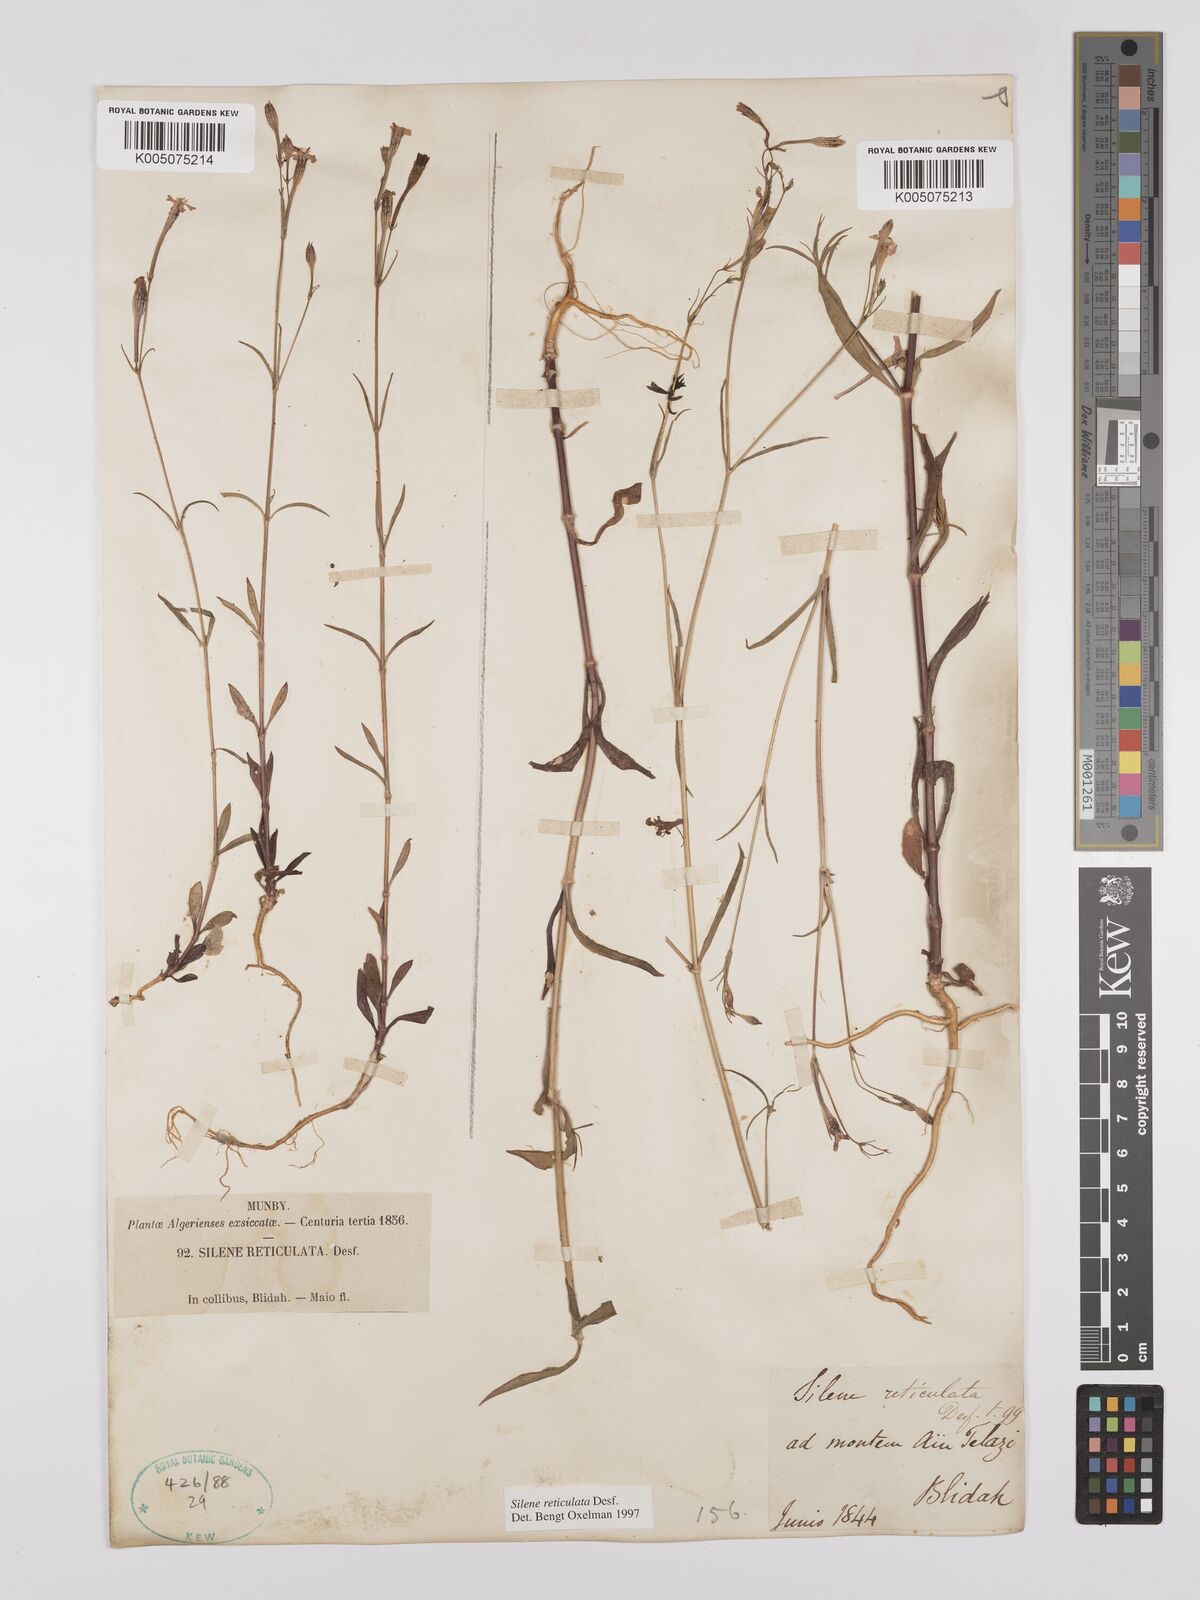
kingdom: Plantae
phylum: Tracheophyta
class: Magnoliopsida
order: Caryophyllales
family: Caryophyllaceae
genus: Silene
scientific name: Silene ramosissima
